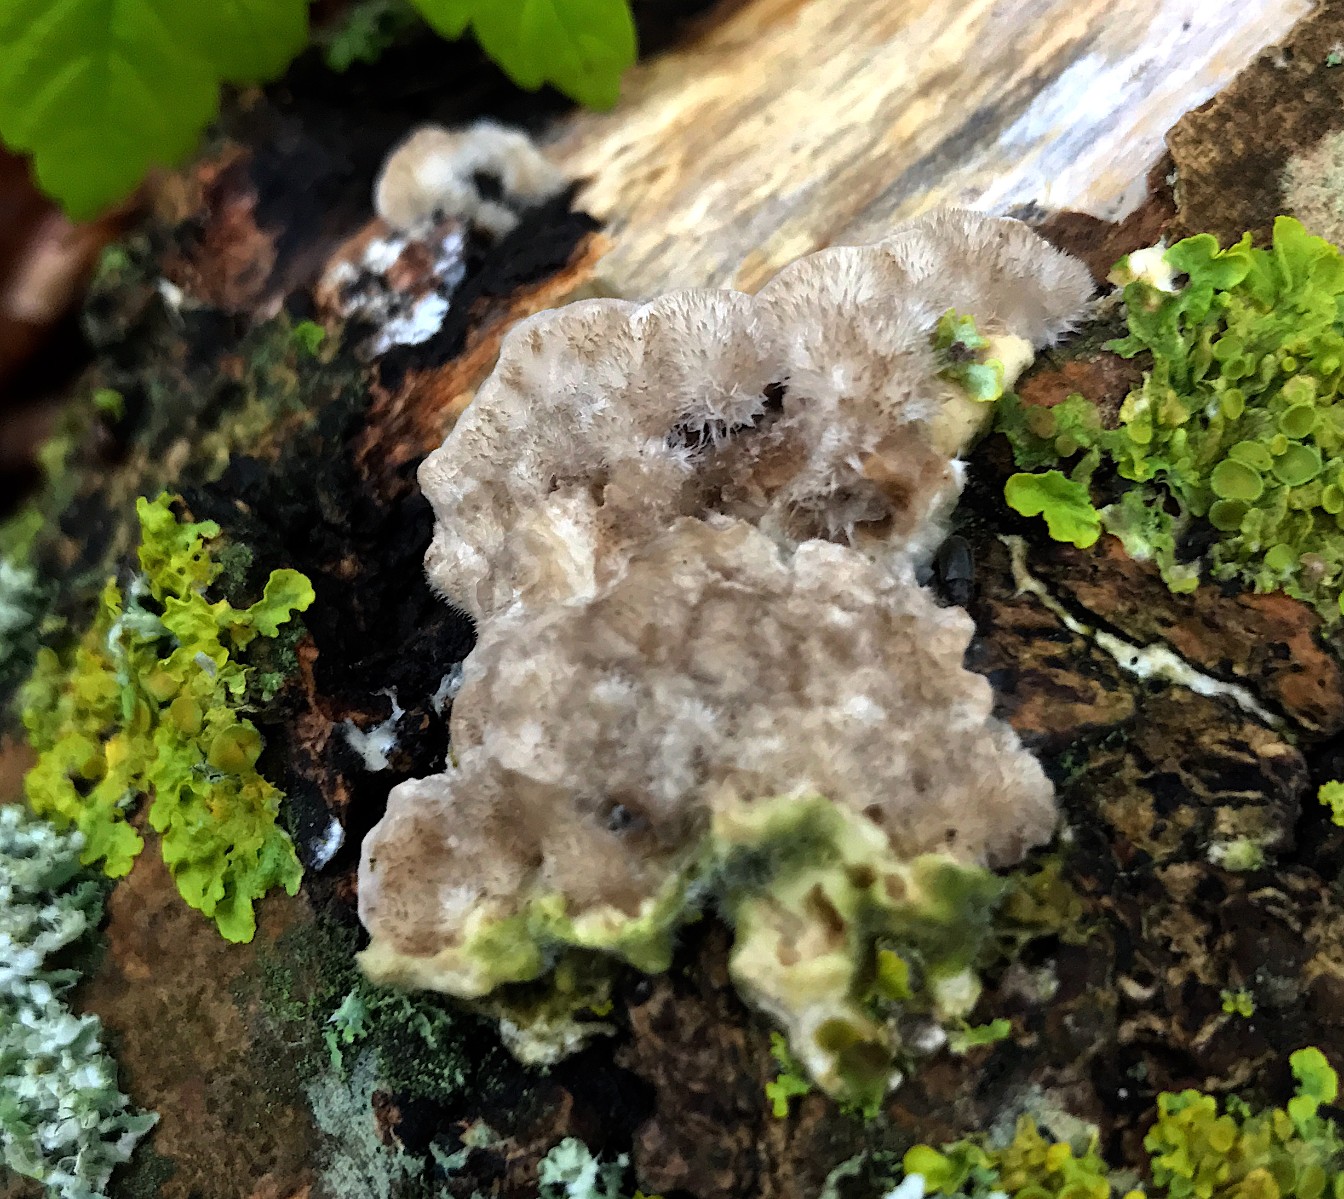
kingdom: Fungi
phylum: Basidiomycota
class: Agaricomycetes
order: Polyporales
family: Polyporaceae
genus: Trametes
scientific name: Trametes hirsuta
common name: håret læderporesvamp
